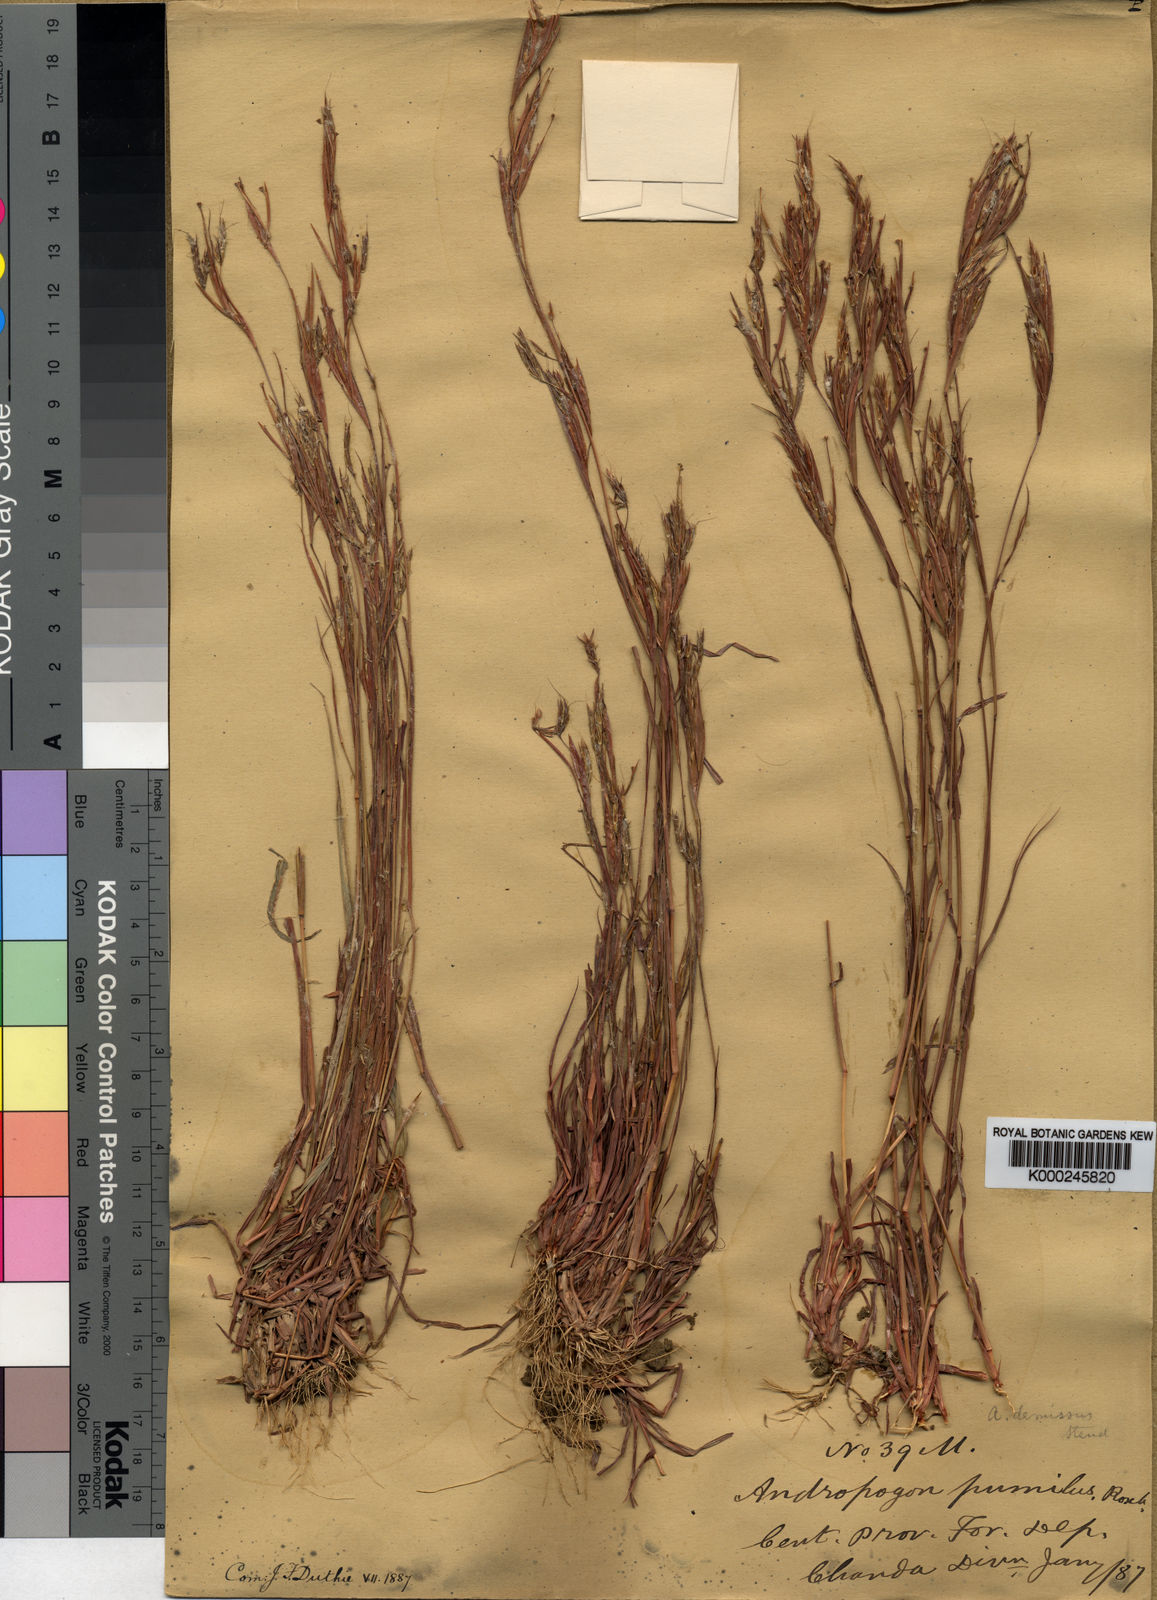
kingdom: Plantae
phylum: Tracheophyta
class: Liliopsida
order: Poales
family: Poaceae
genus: Andropogon
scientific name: Andropogon pumilus
